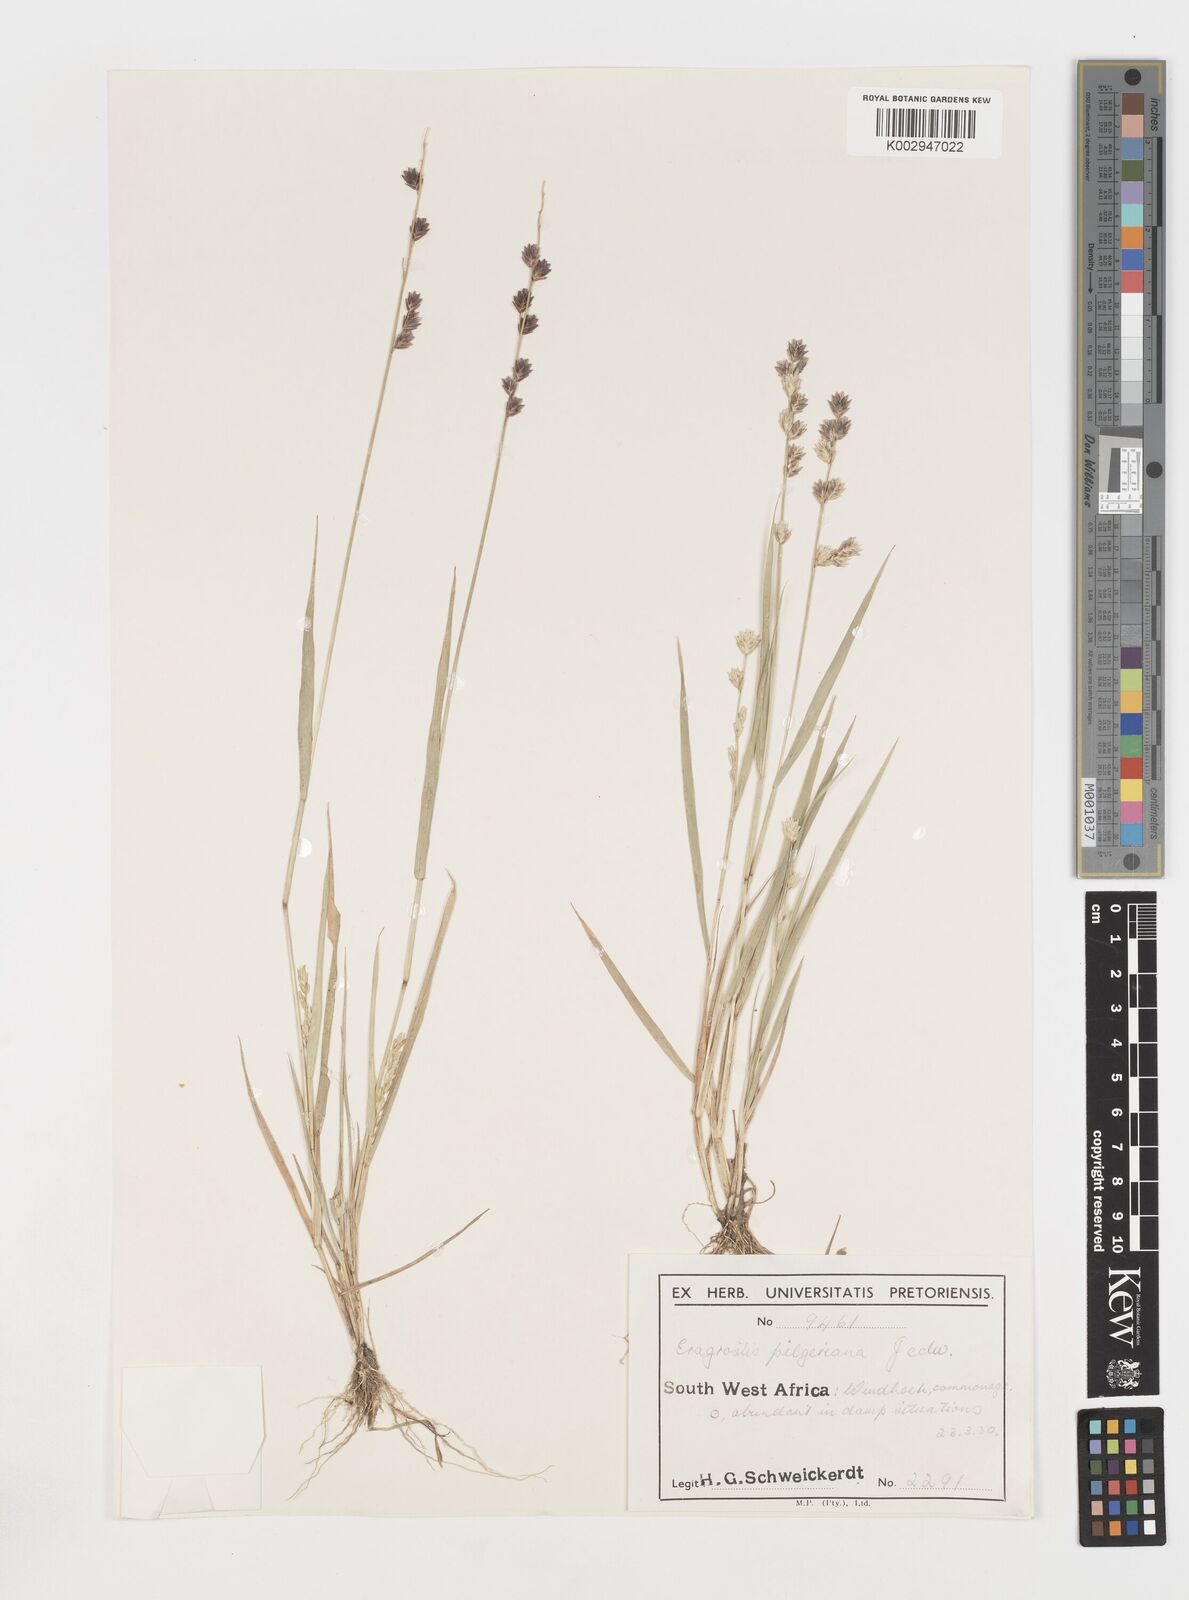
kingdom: Plantae
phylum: Tracheophyta
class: Liliopsida
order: Poales
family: Poaceae
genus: Eragrostis
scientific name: Eragrostis pilgeriana
